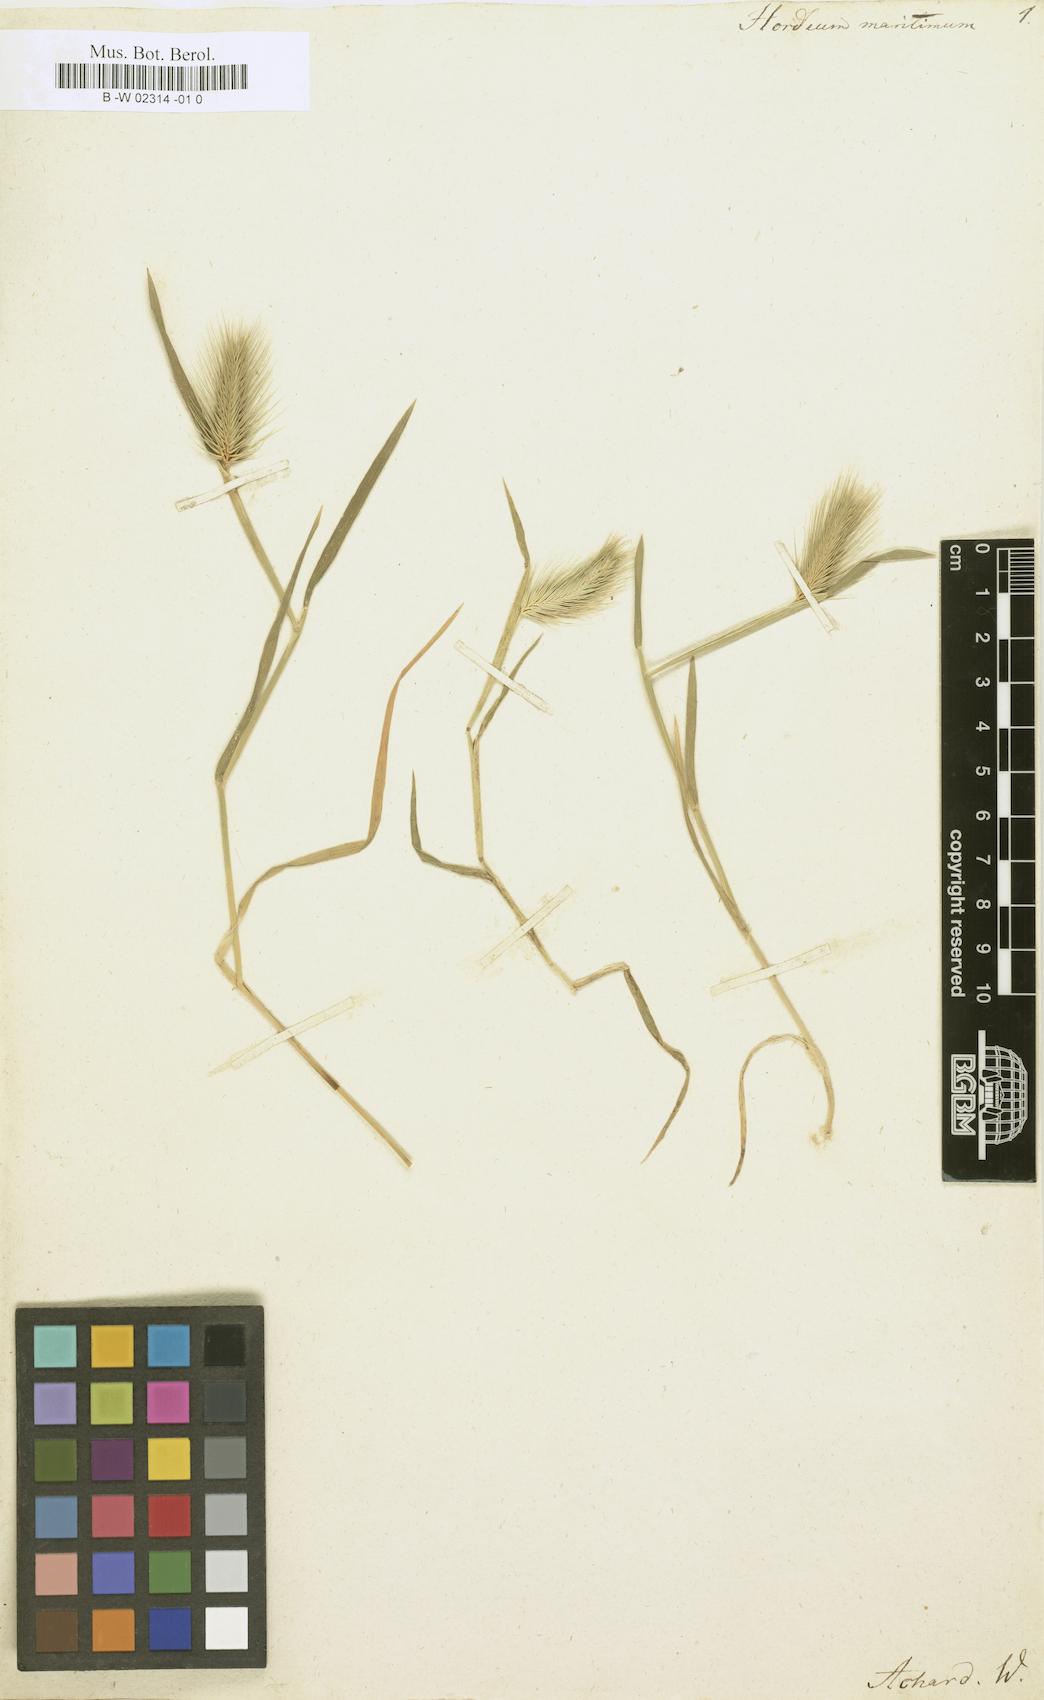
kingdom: Plantae
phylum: Tracheophyta
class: Liliopsida
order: Poales
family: Poaceae
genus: Hordeum
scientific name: Hordeum maritimum
